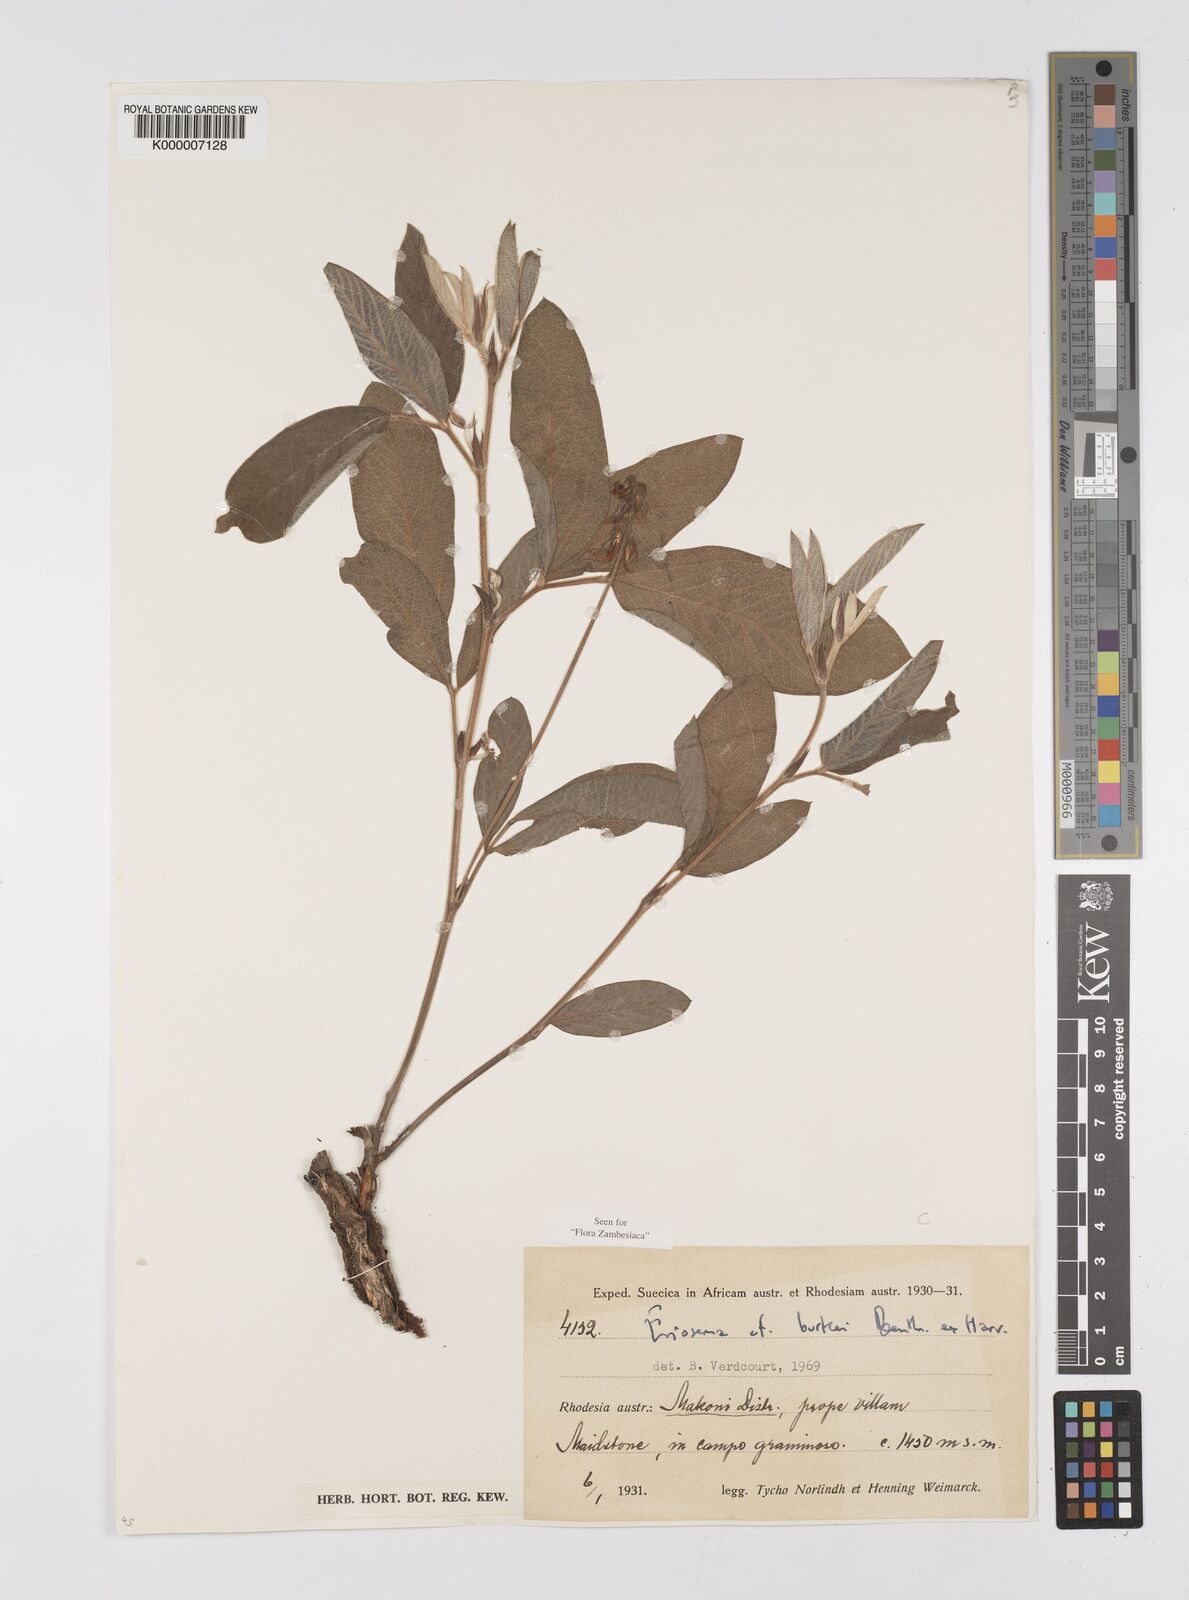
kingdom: Plantae
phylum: Tracheophyta
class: Magnoliopsida
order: Fabales
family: Fabaceae
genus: Eriosema
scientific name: Eriosema burkei
